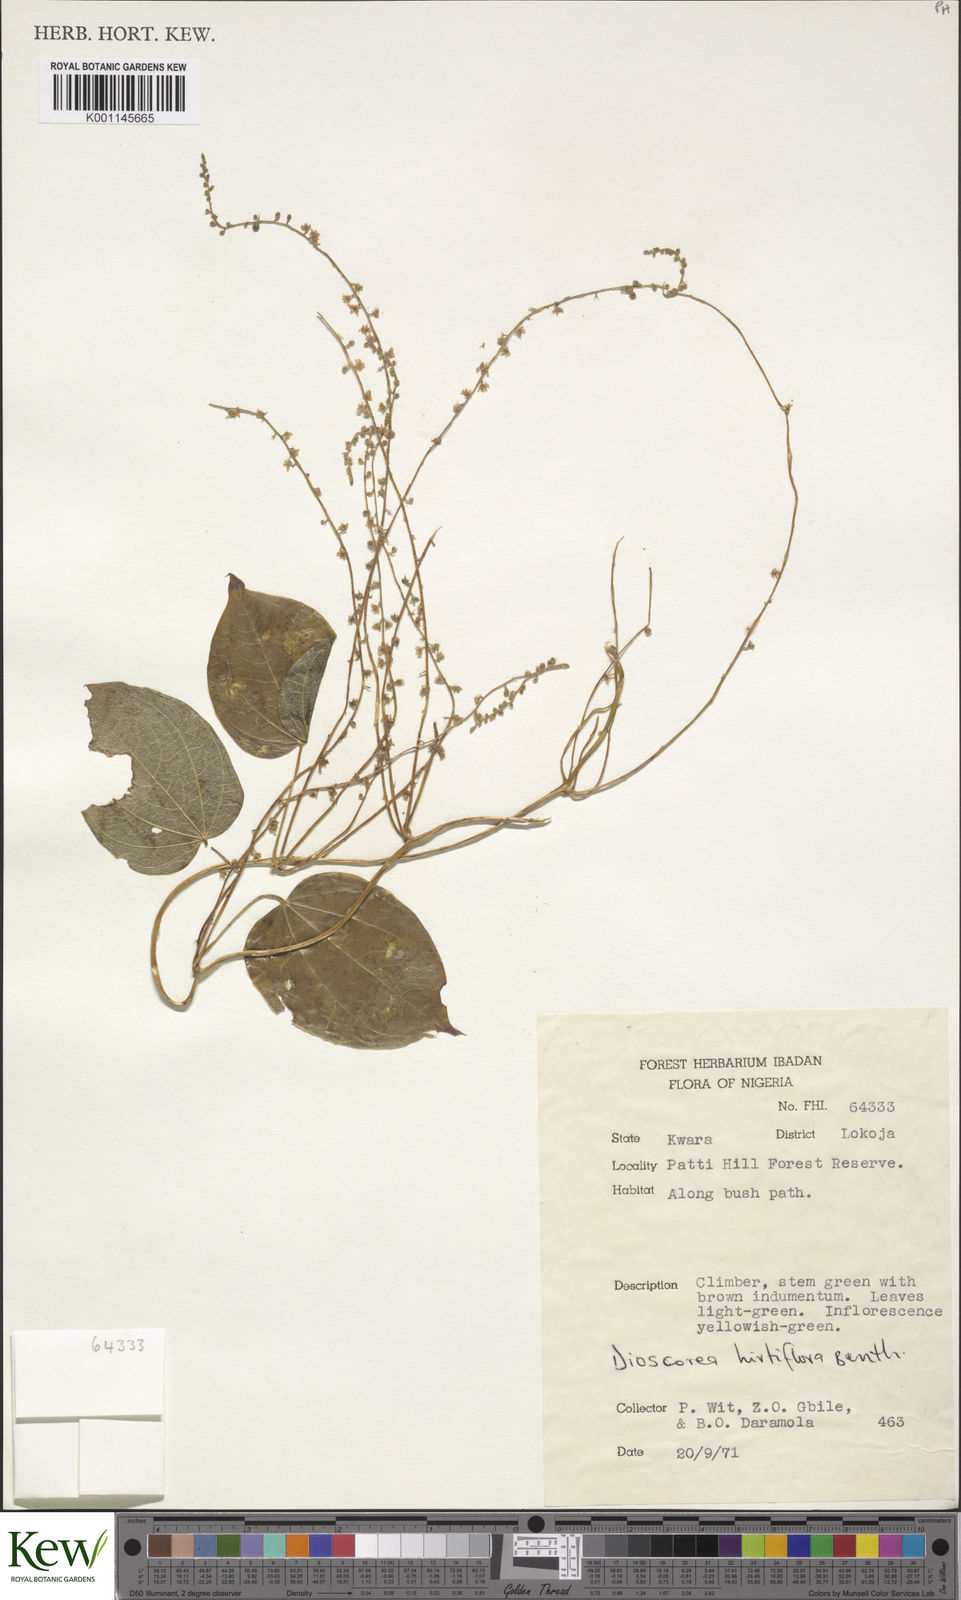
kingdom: Plantae
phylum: Tracheophyta
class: Liliopsida
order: Dioscoreales
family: Dioscoreaceae
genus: Dioscorea
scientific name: Dioscorea hirtiflora
